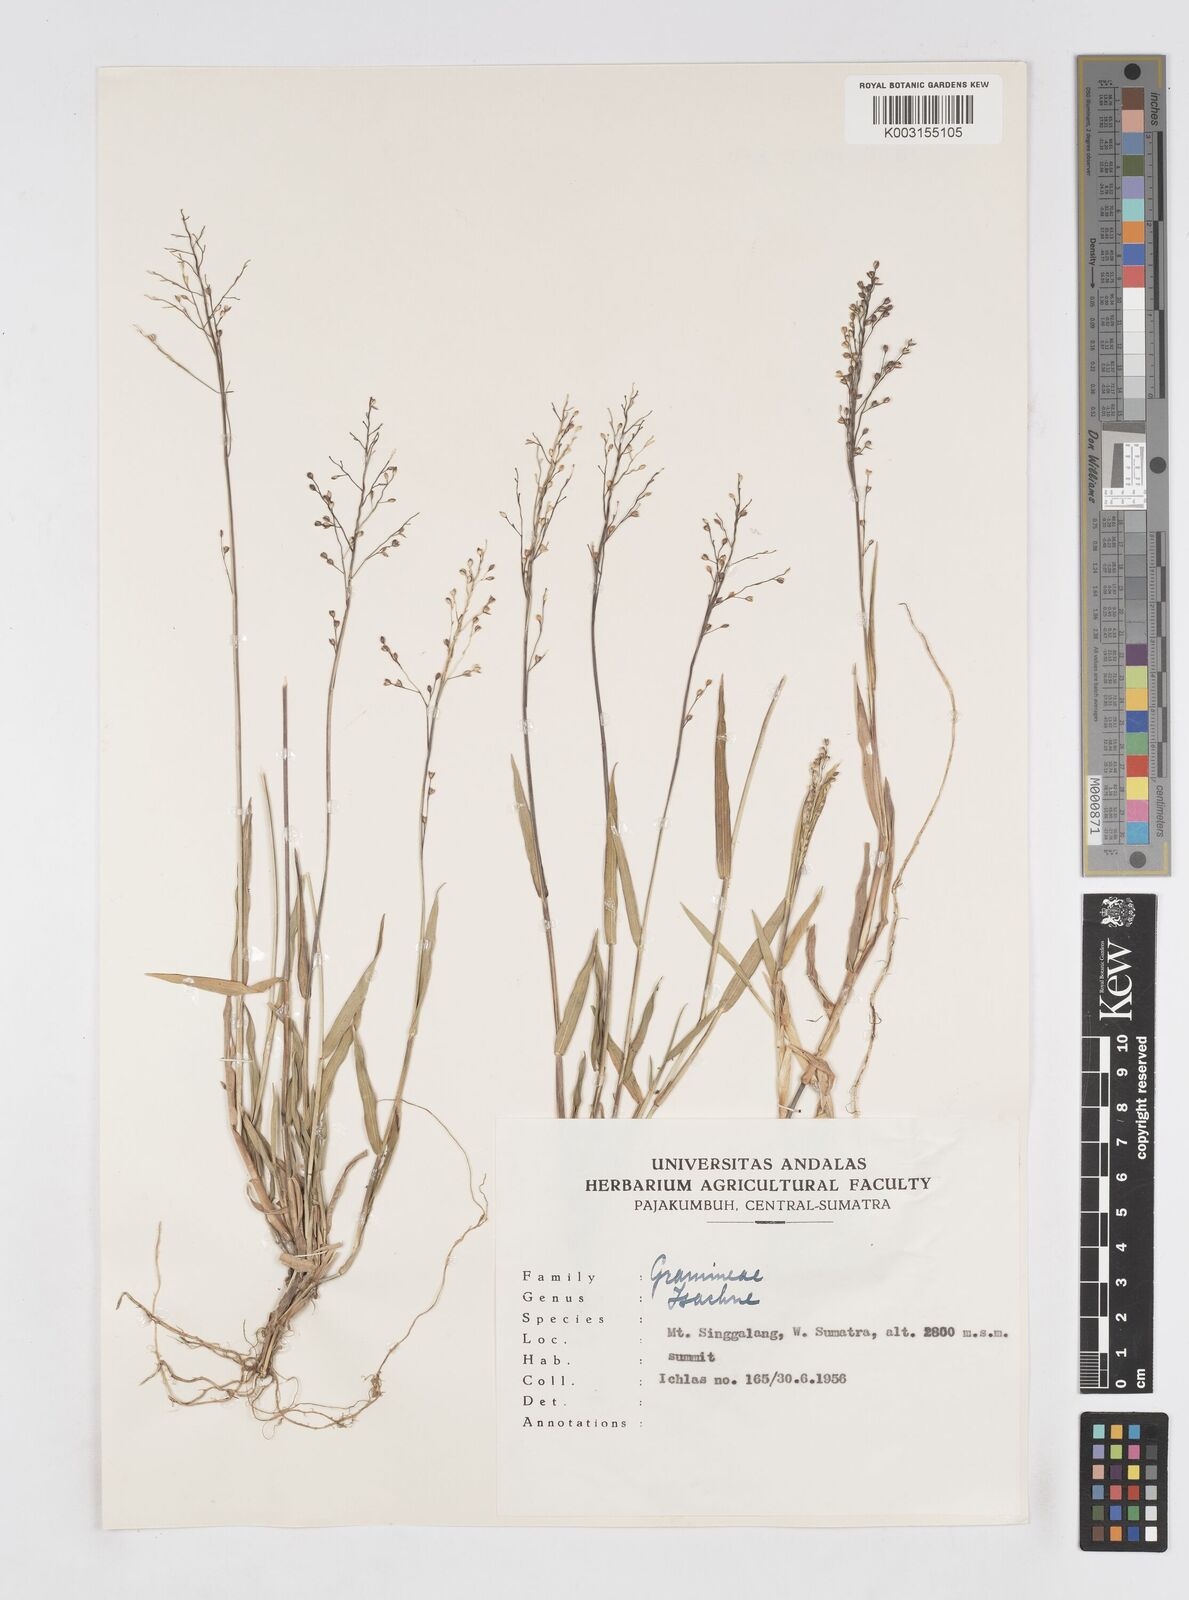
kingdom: Plantae
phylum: Tracheophyta
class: Liliopsida
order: Poales
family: Poaceae
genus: Isachne
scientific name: Isachne
